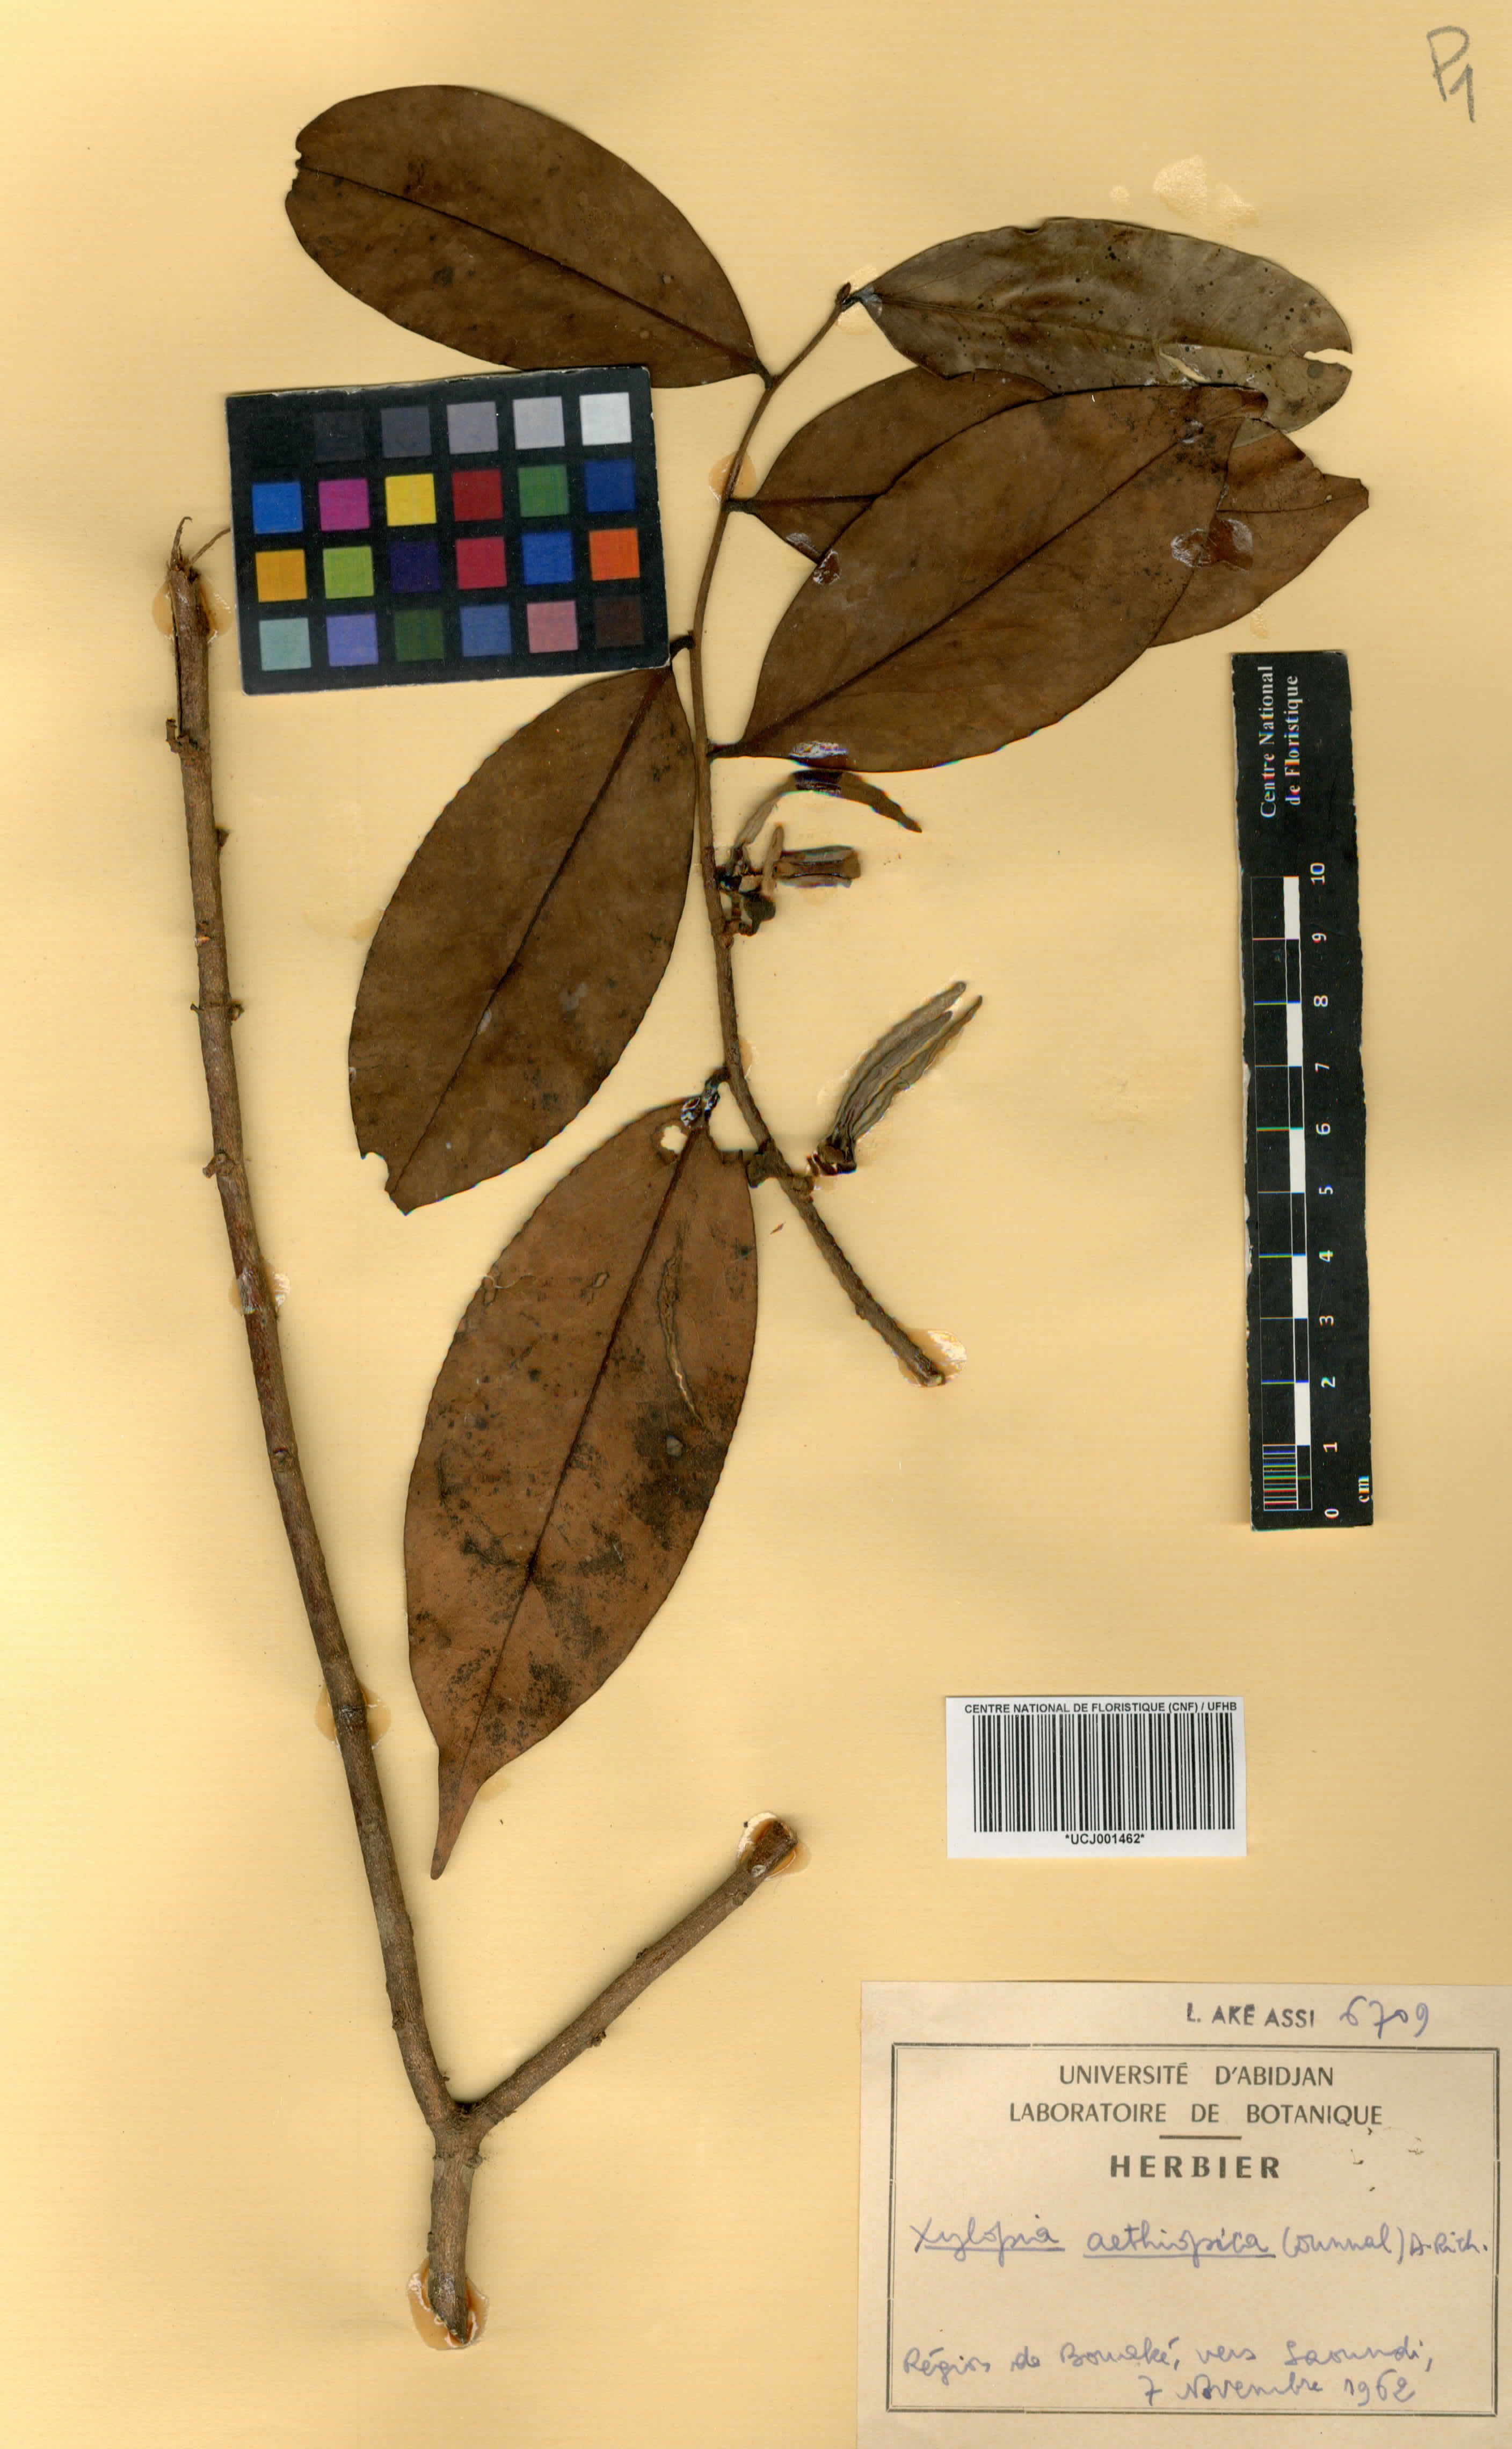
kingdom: Plantae
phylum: Tracheophyta
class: Magnoliopsida
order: Magnoliales
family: Annonaceae
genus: Xylopia
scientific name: Xylopia aethiopica
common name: Ethiopian-pepper
